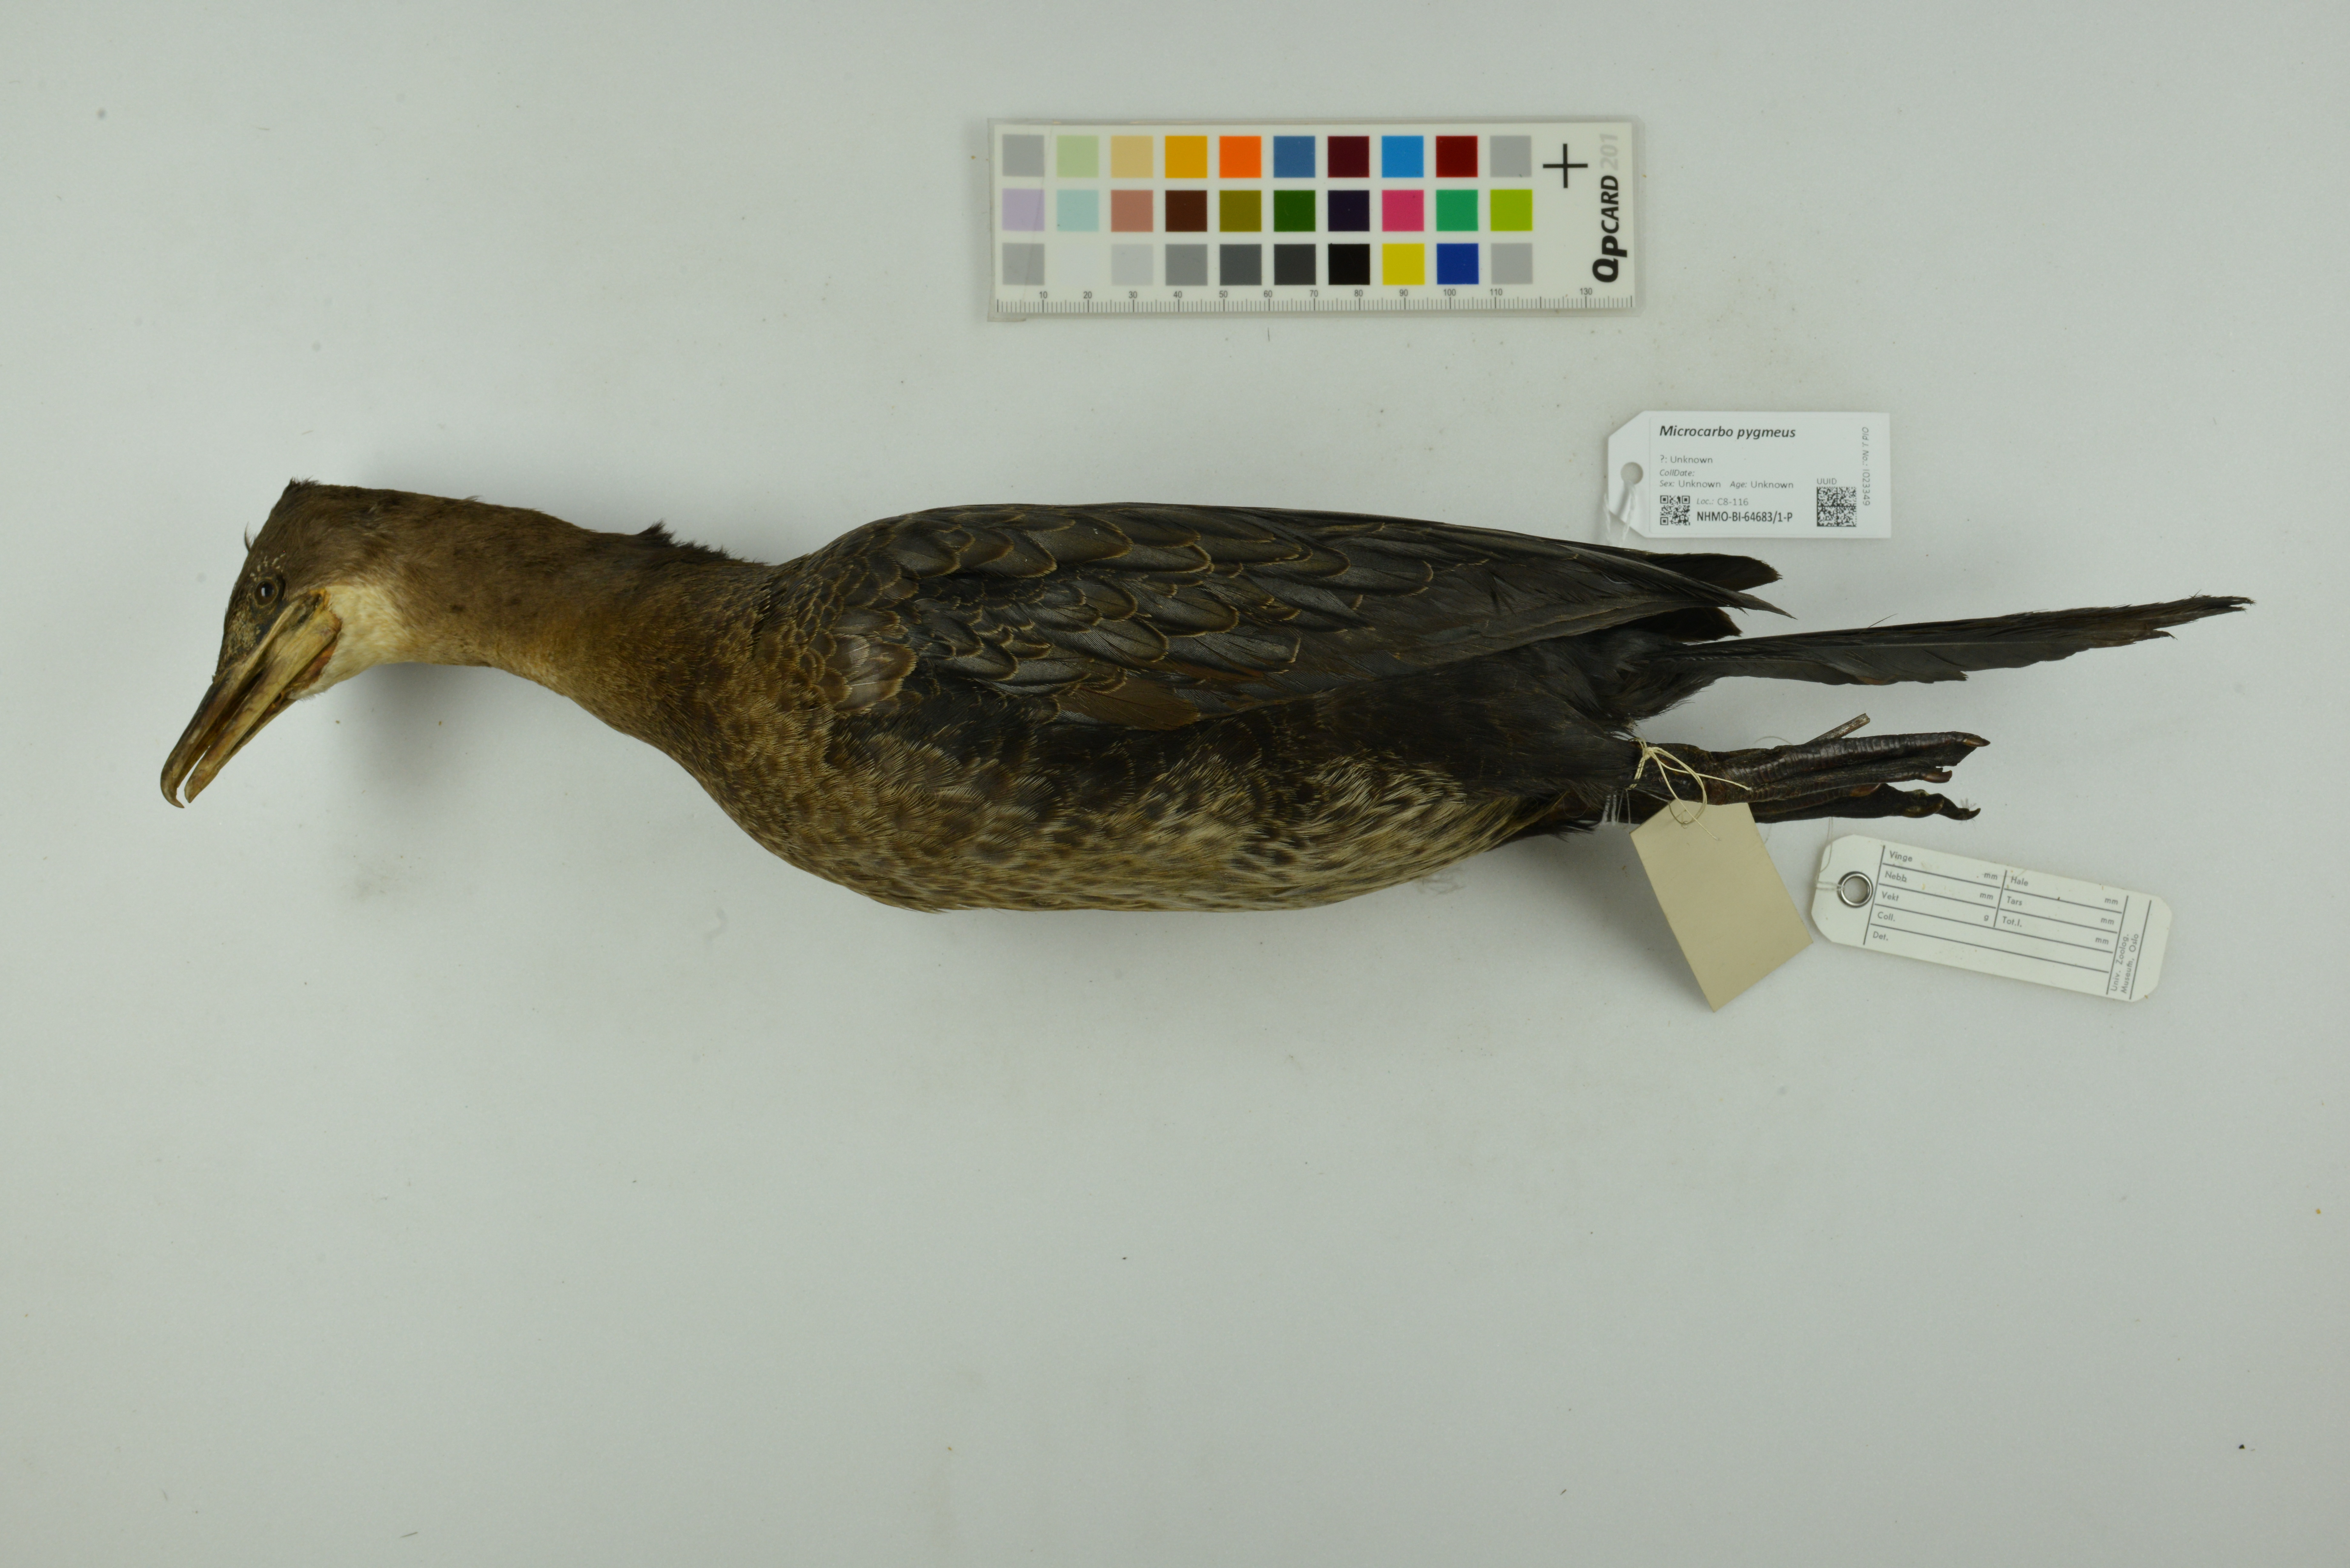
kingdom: Animalia
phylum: Chordata
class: Aves
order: Suliformes
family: Phalacrocoracidae
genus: Microcarbo
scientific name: Microcarbo pygmaeus
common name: Pygmy cormorant
